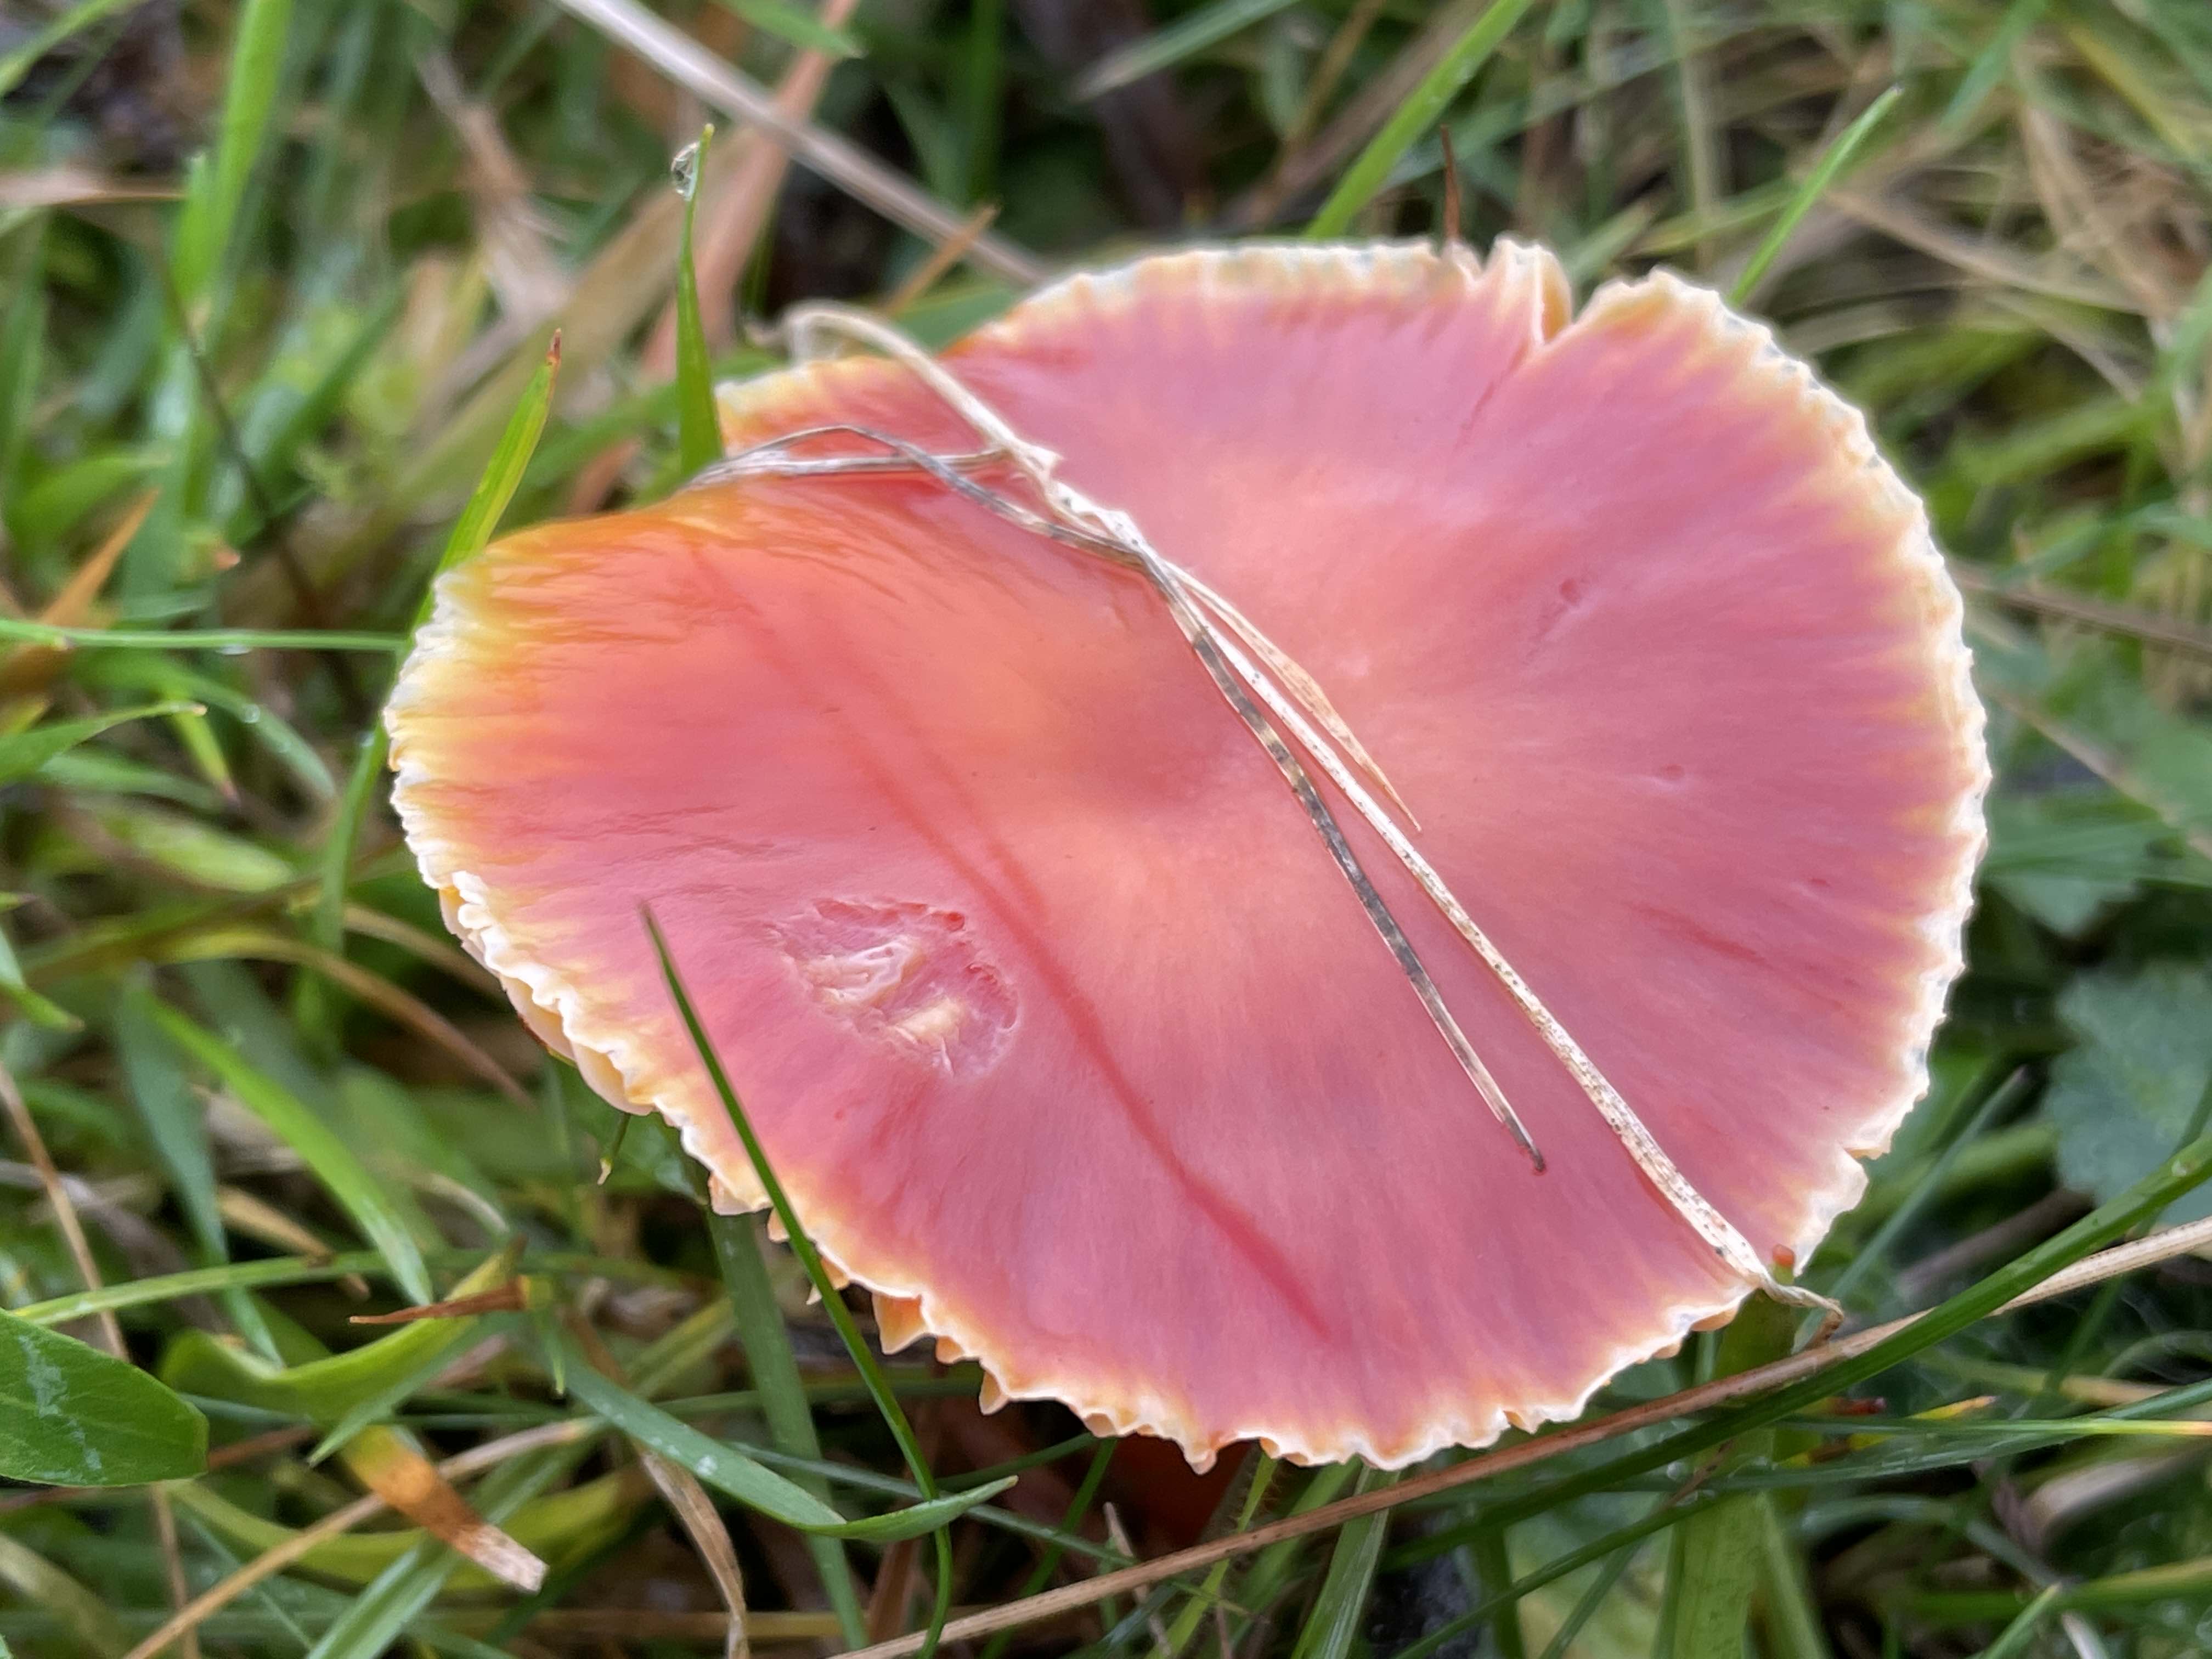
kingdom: Fungi
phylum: Basidiomycota
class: Agaricomycetes
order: Agaricales
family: Hygrophoraceae
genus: Hygrocybe
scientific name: Hygrocybe coccinea
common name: cinnober-vokshat
